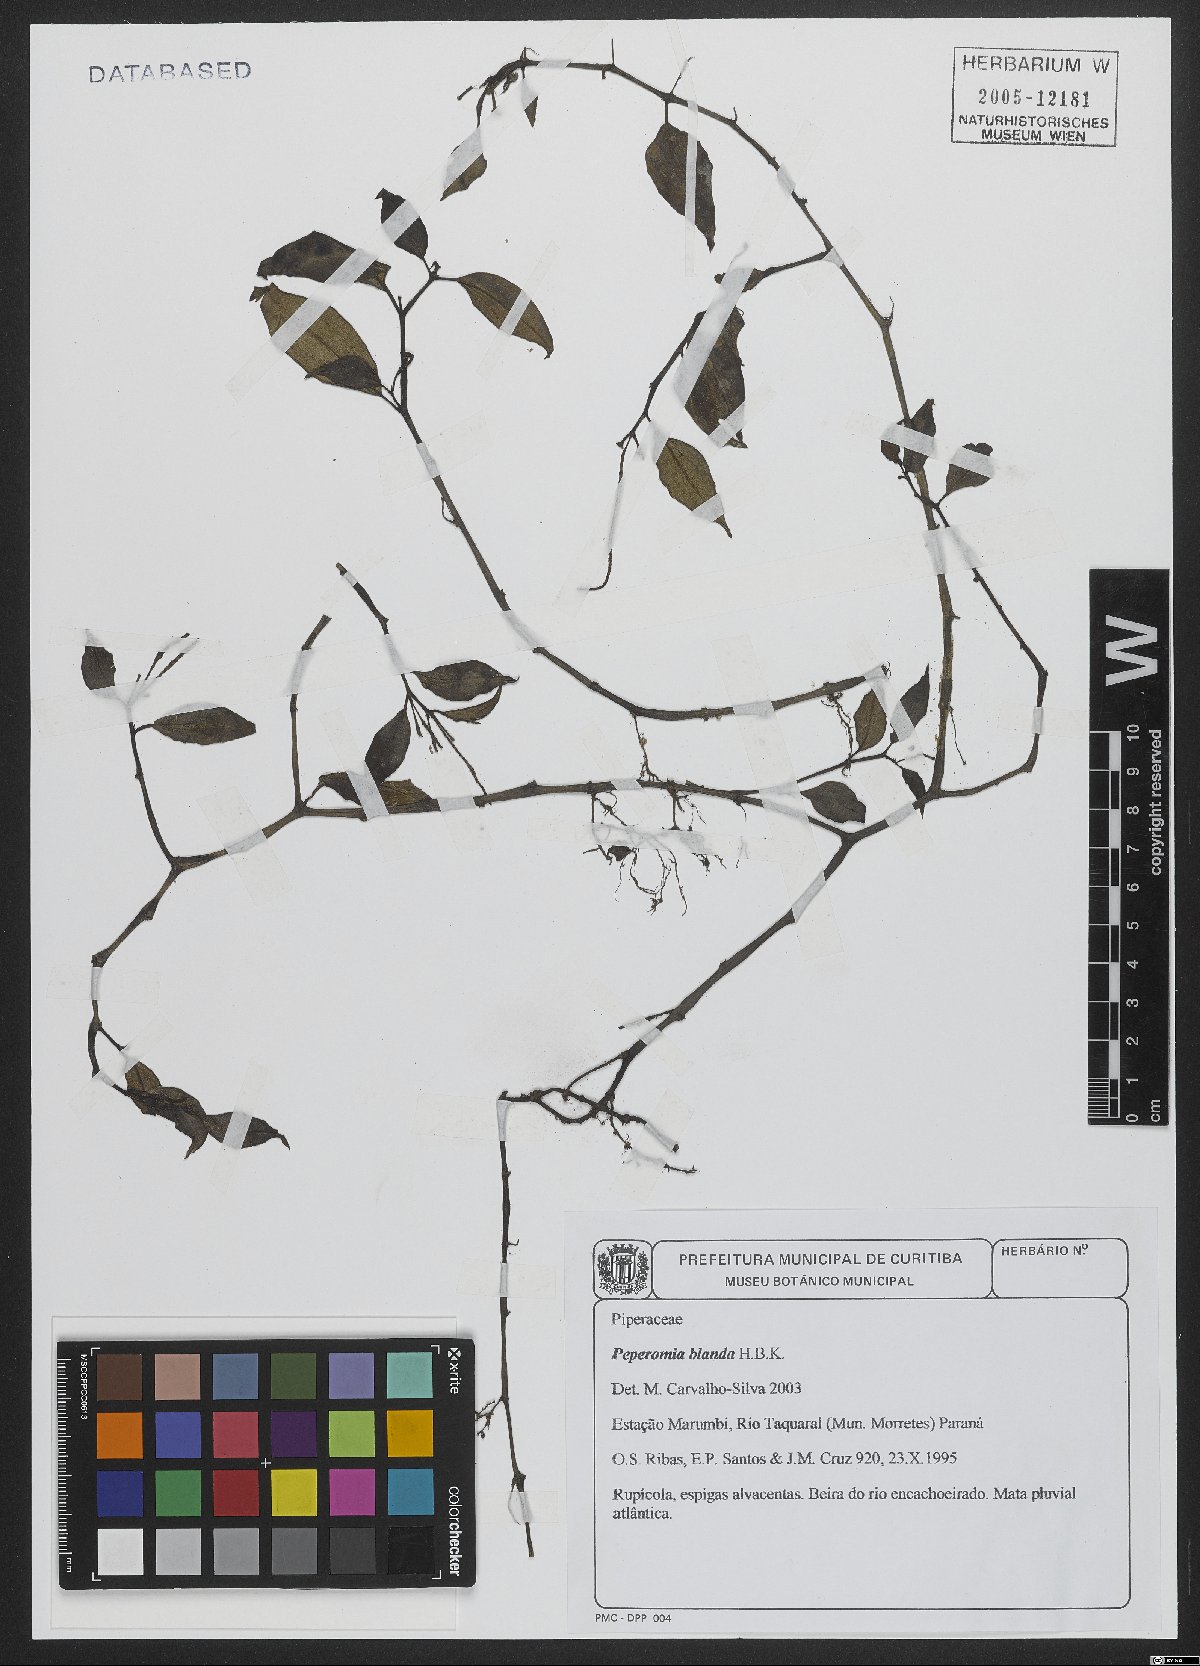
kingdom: Plantae
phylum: Tracheophyta
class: Magnoliopsida
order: Piperales
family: Piperaceae
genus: Peperomia
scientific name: Peperomia blanda
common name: Arid-land peperomia
